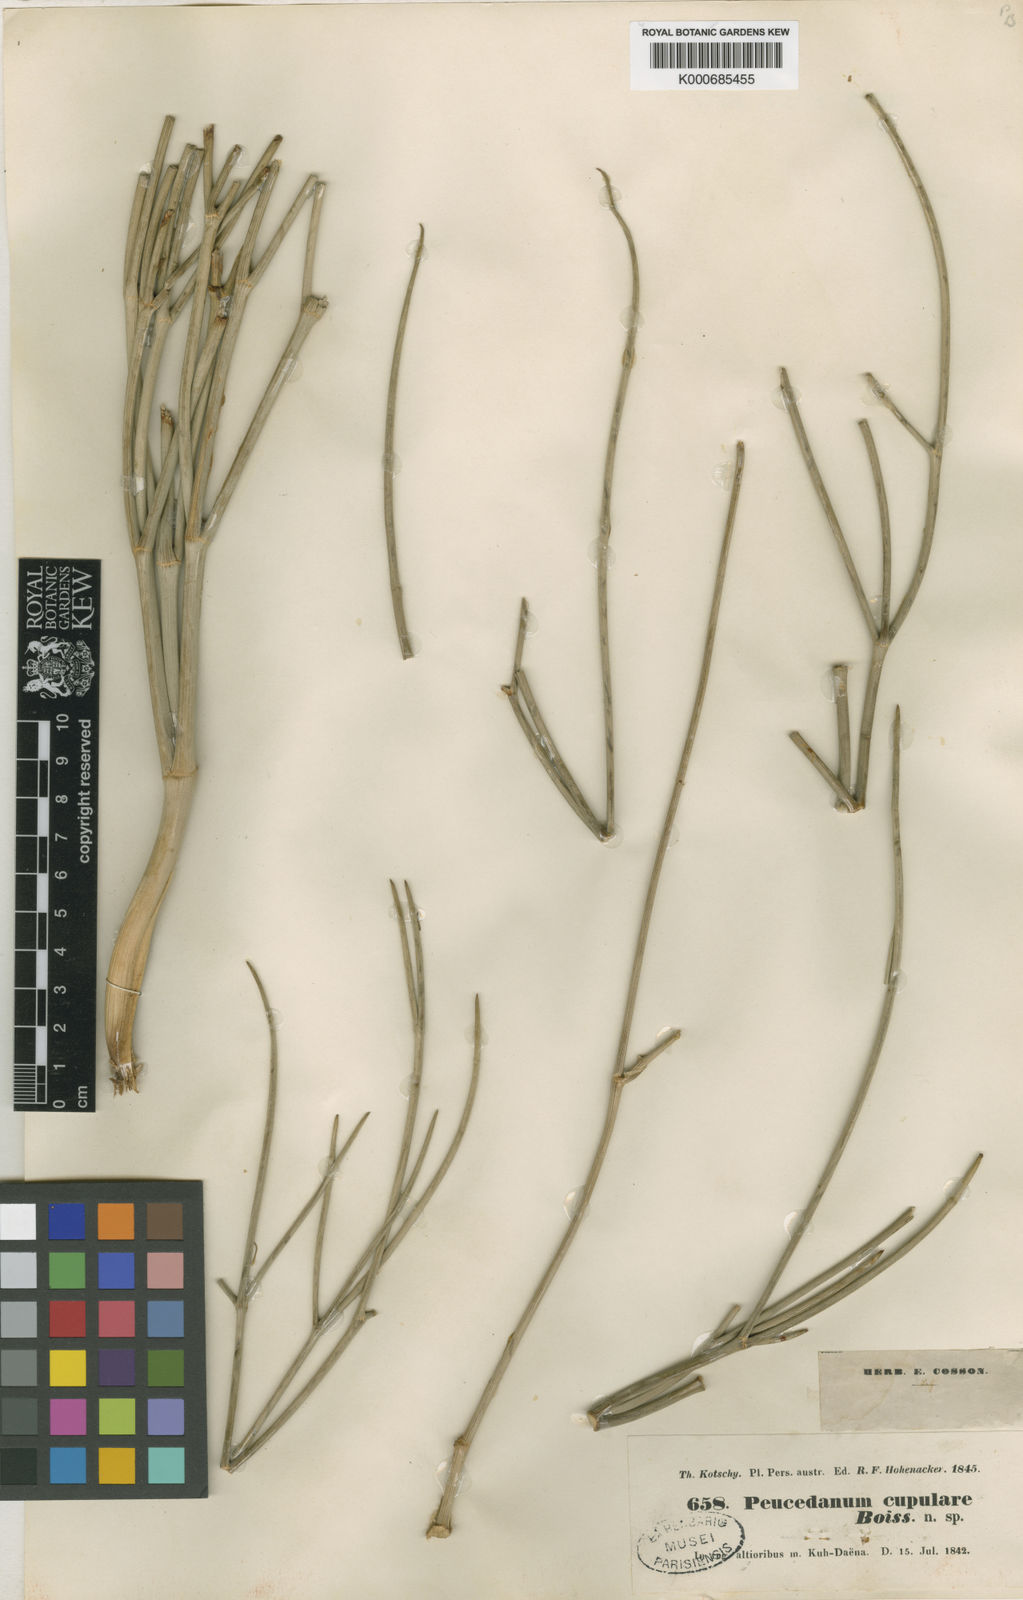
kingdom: Plantae
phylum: Tracheophyta
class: Magnoliopsida
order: Apiales
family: Apiaceae
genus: Ferula
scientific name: Ferula cupularis
